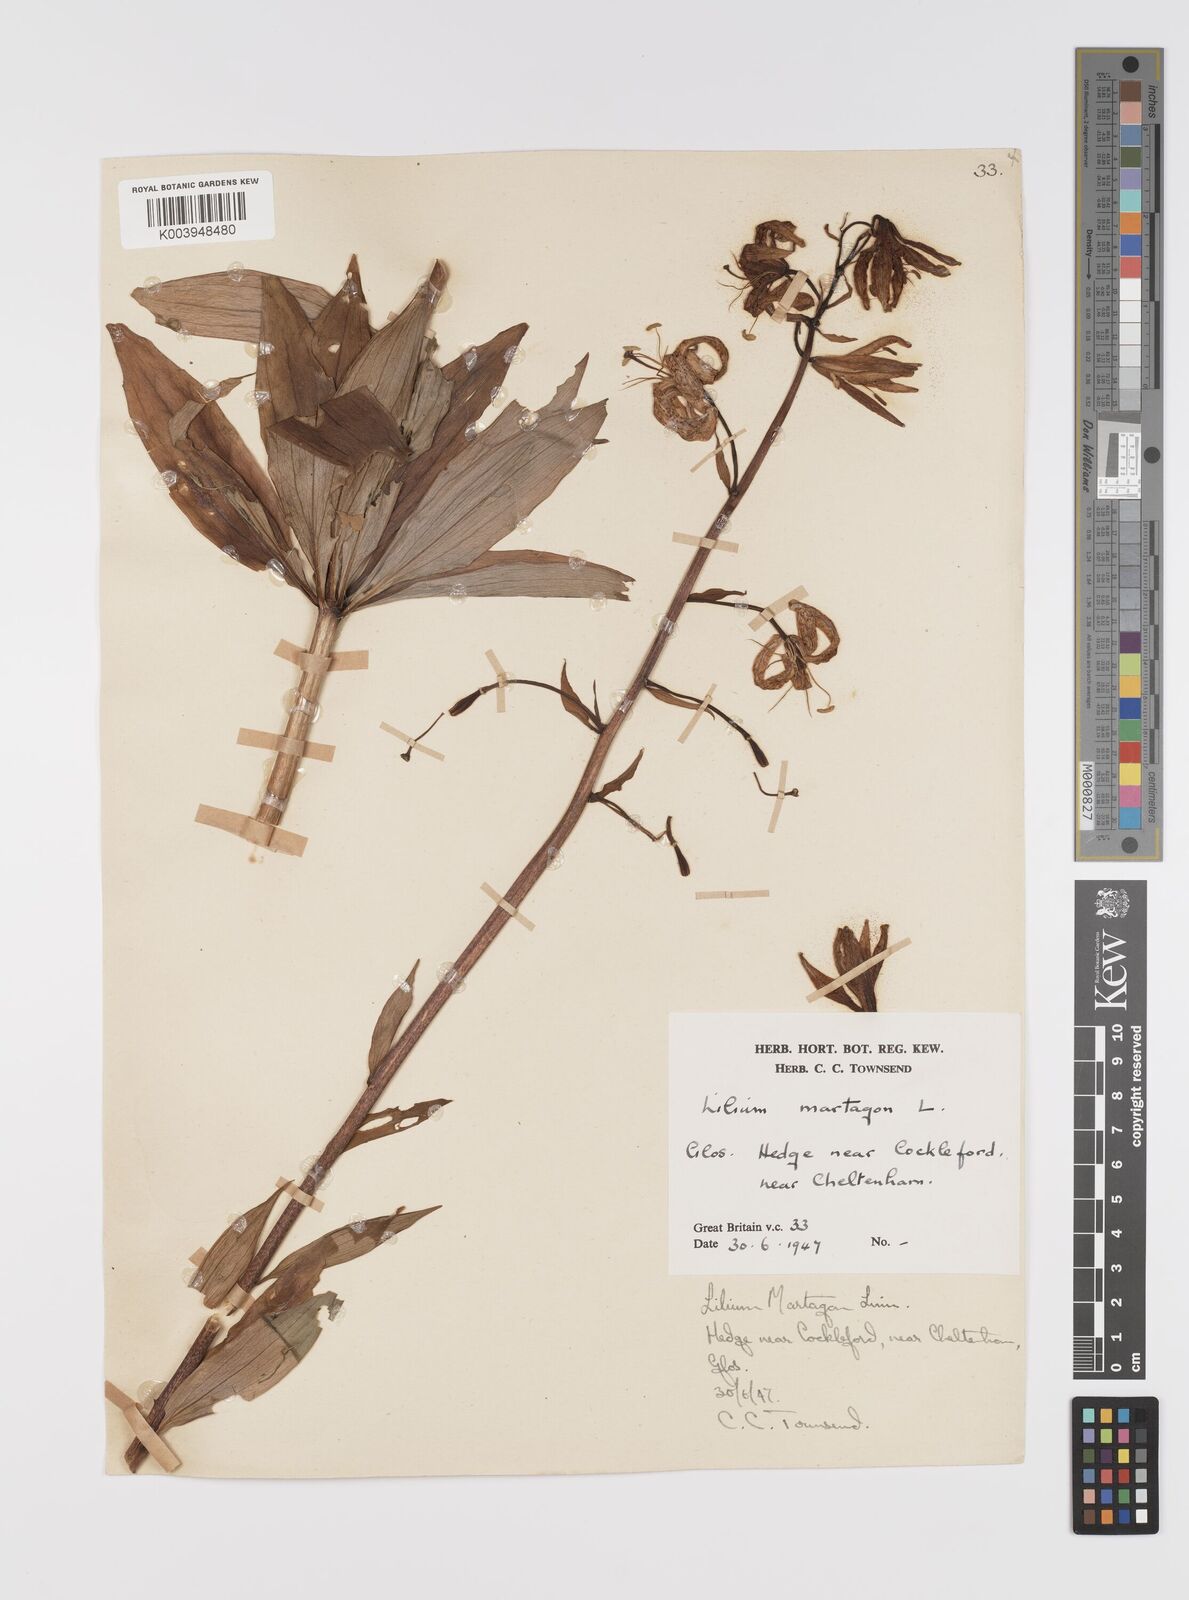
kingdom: Plantae
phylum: Tracheophyta
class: Liliopsida
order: Liliales
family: Liliaceae
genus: Lilium
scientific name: Lilium martagon
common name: Martagon lily
